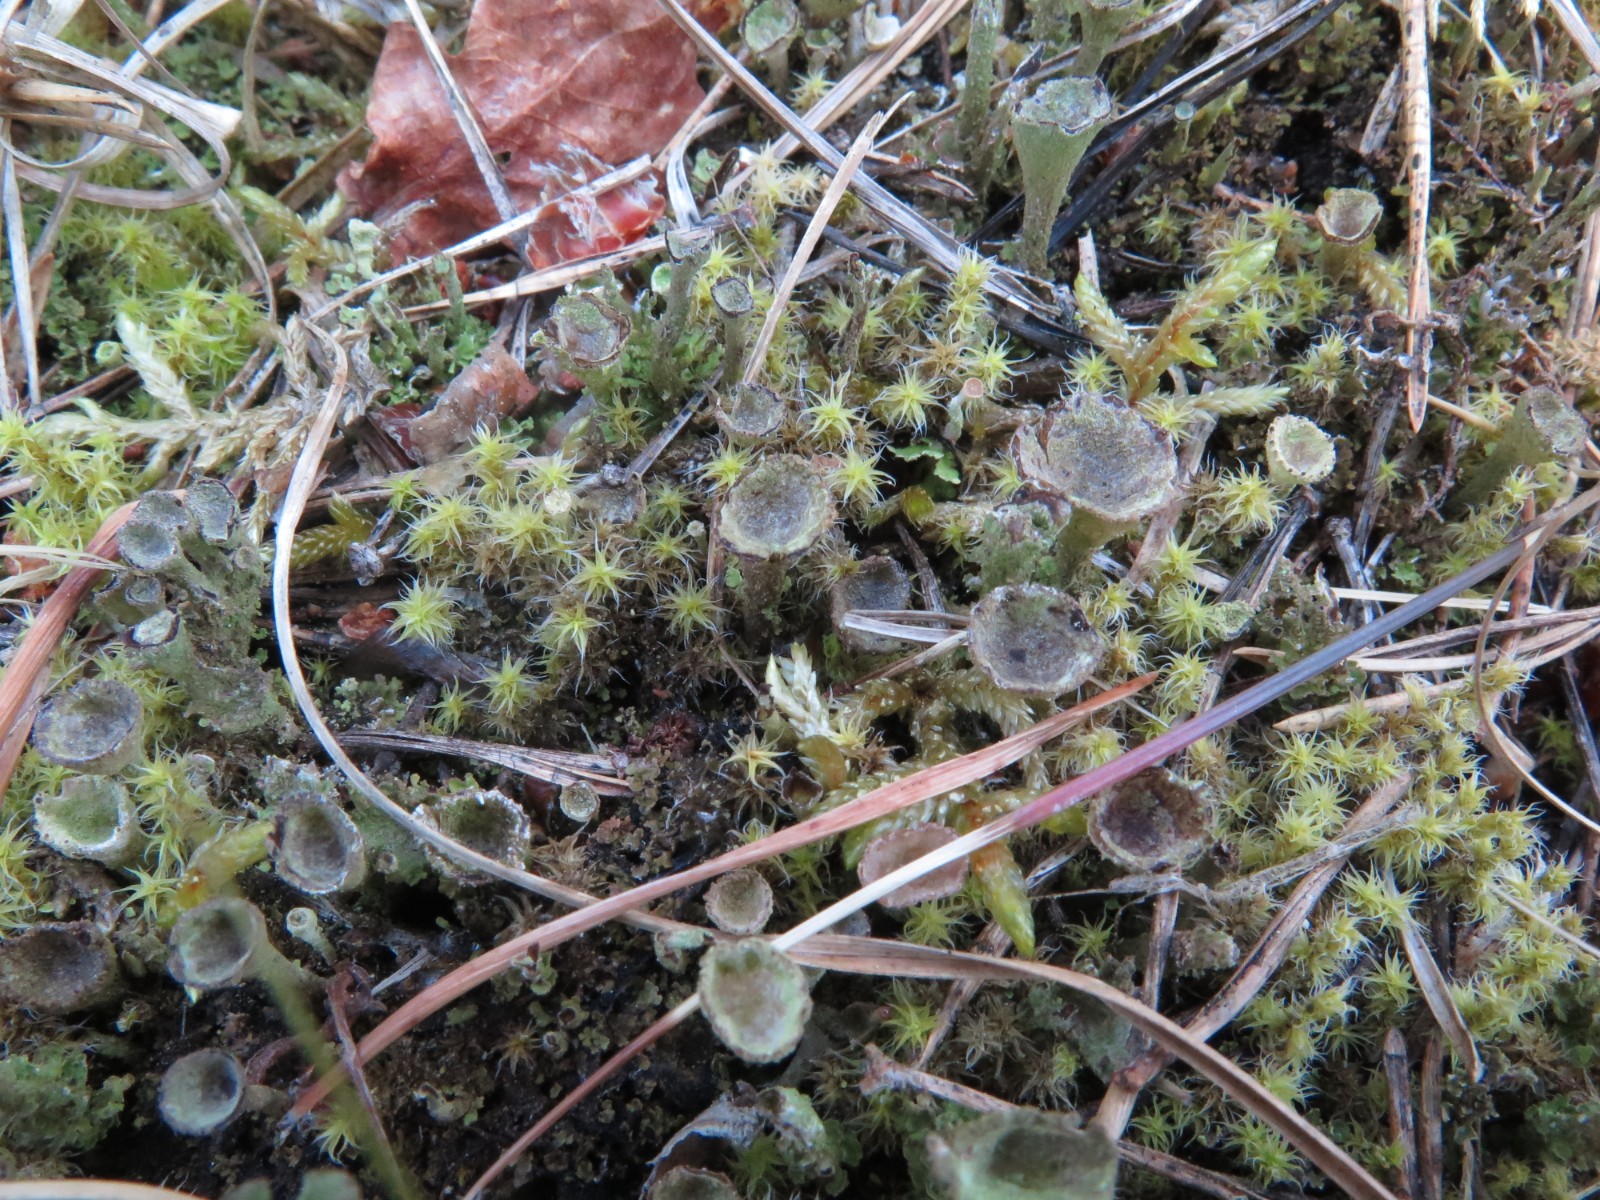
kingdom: Fungi
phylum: Ascomycota
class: Lecanoromycetes
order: Lecanorales
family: Cladoniaceae
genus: Cladonia
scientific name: Cladonia
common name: brungrøn bægerlav
